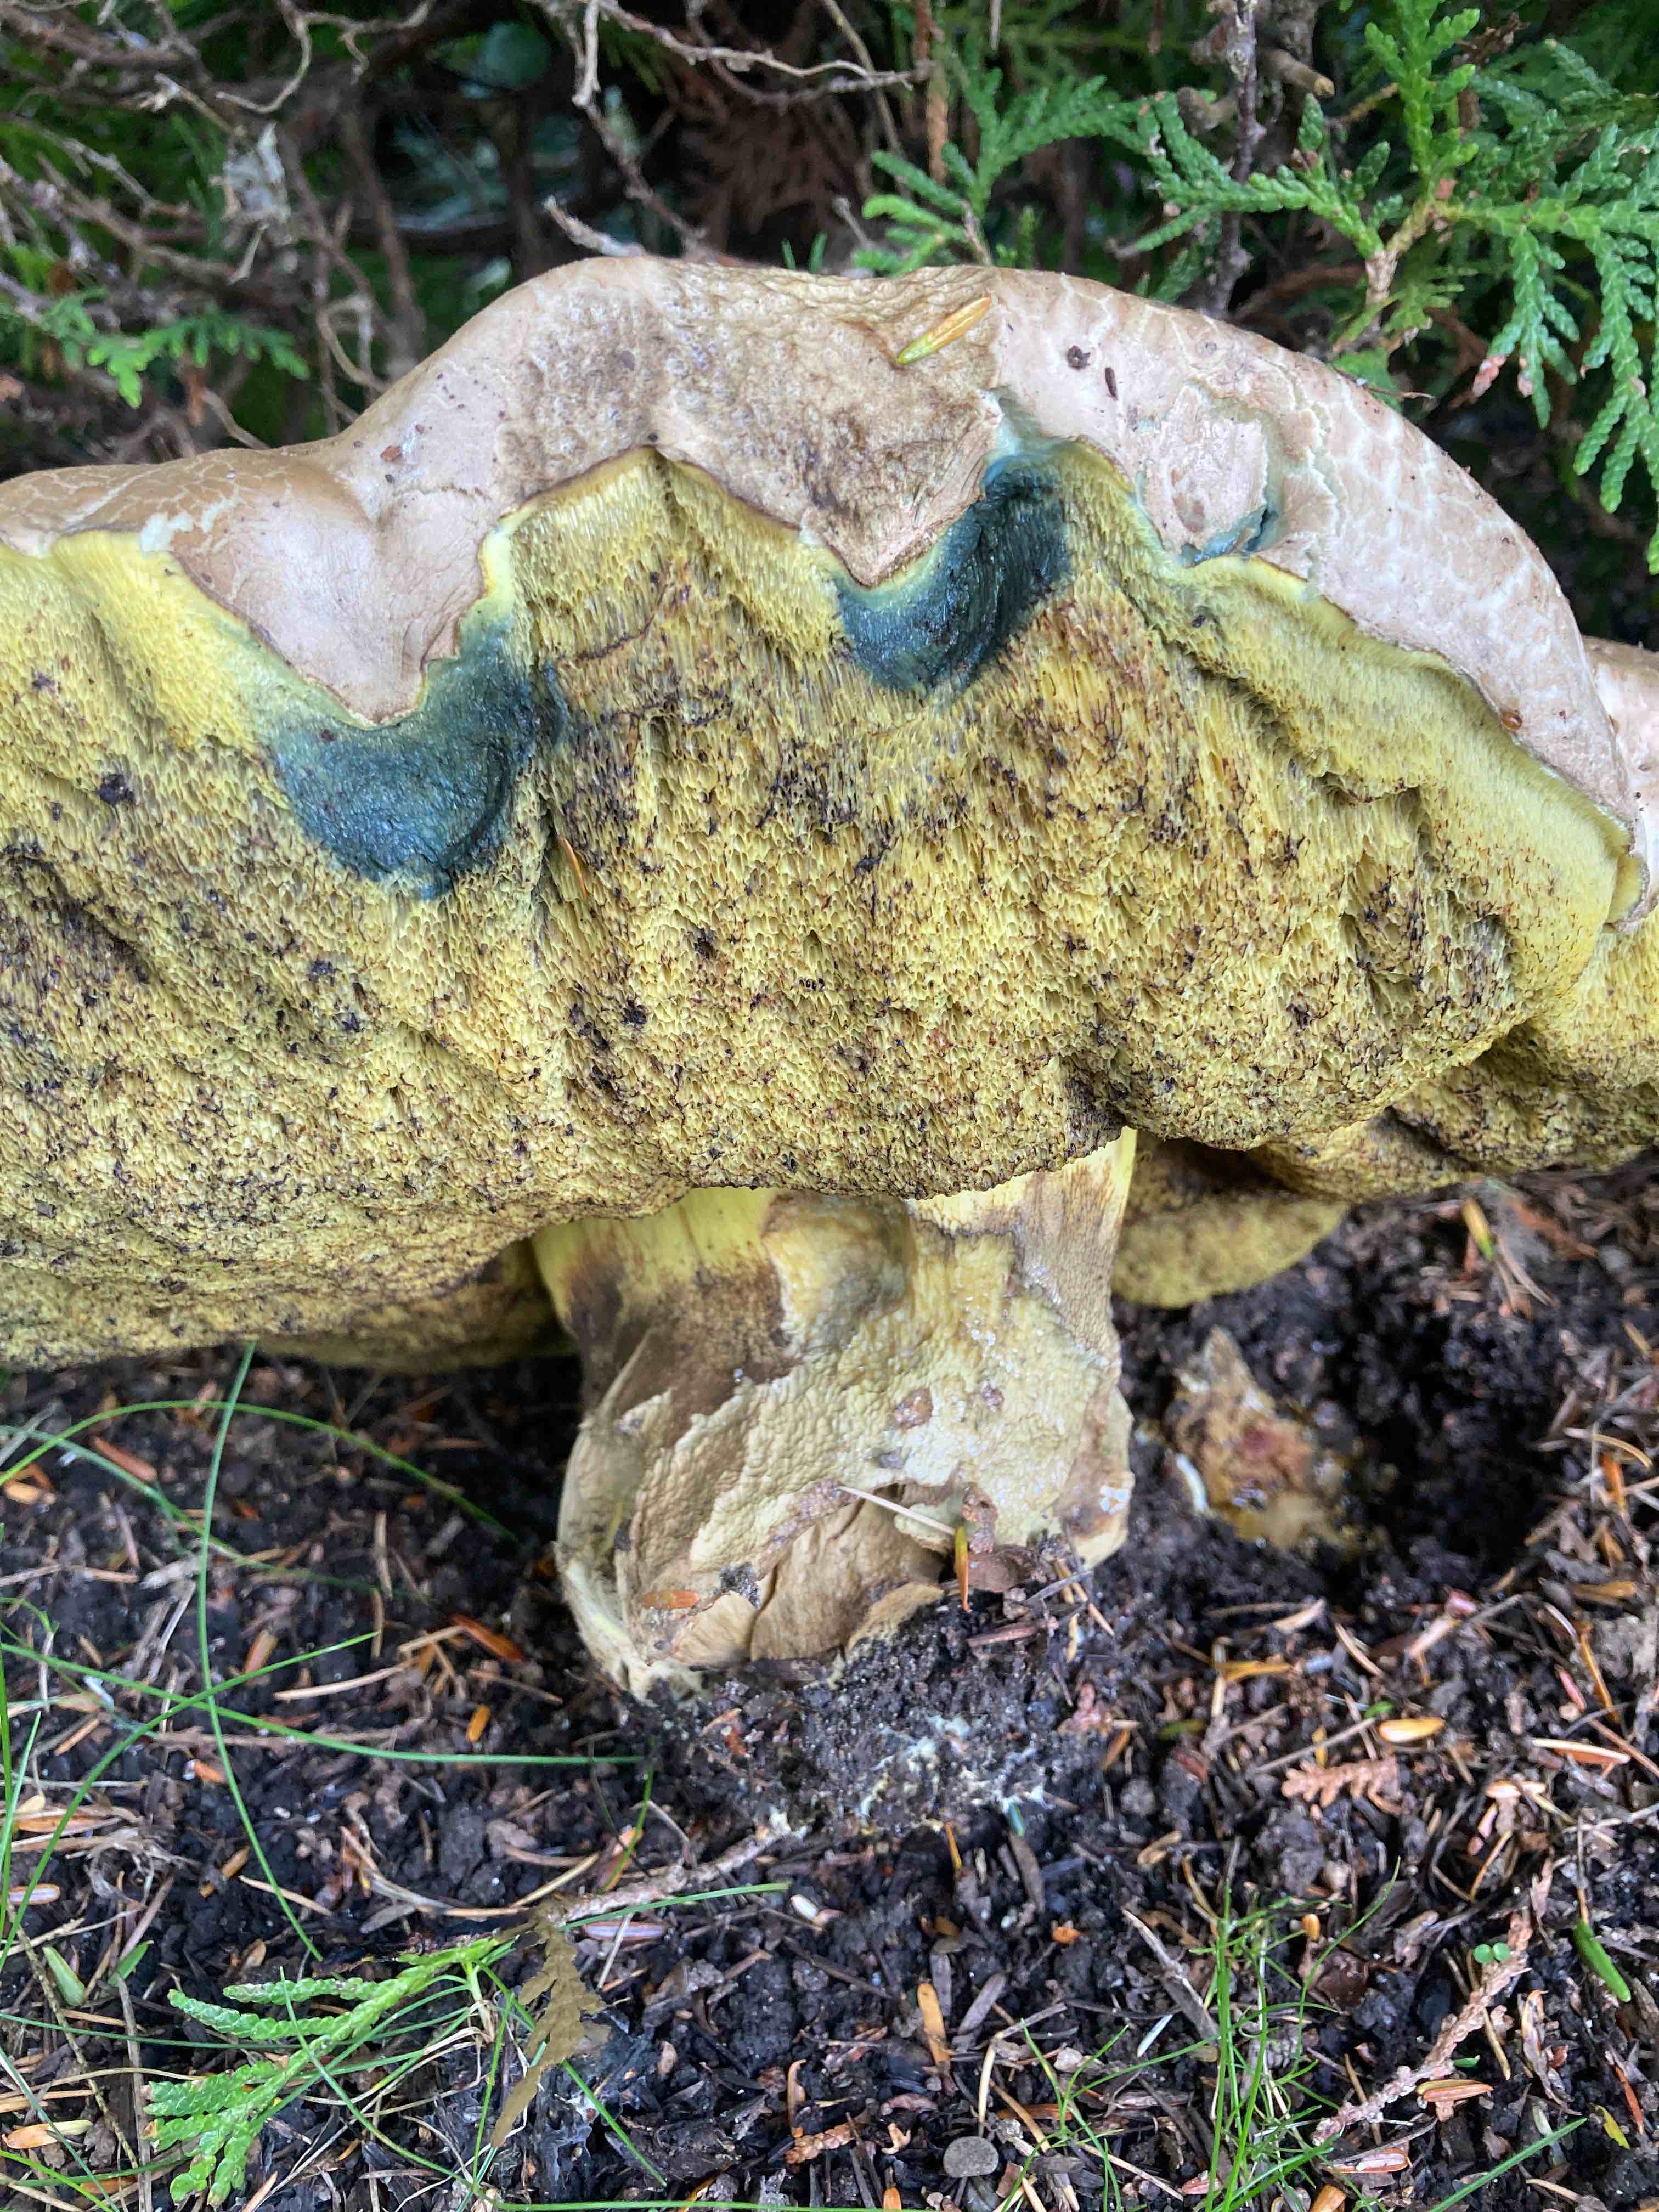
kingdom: Fungi
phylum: Basidiomycota
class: Agaricomycetes
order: Boletales
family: Boletaceae
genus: Caloboletus
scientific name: Caloboletus radicans
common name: rod-rørhat
